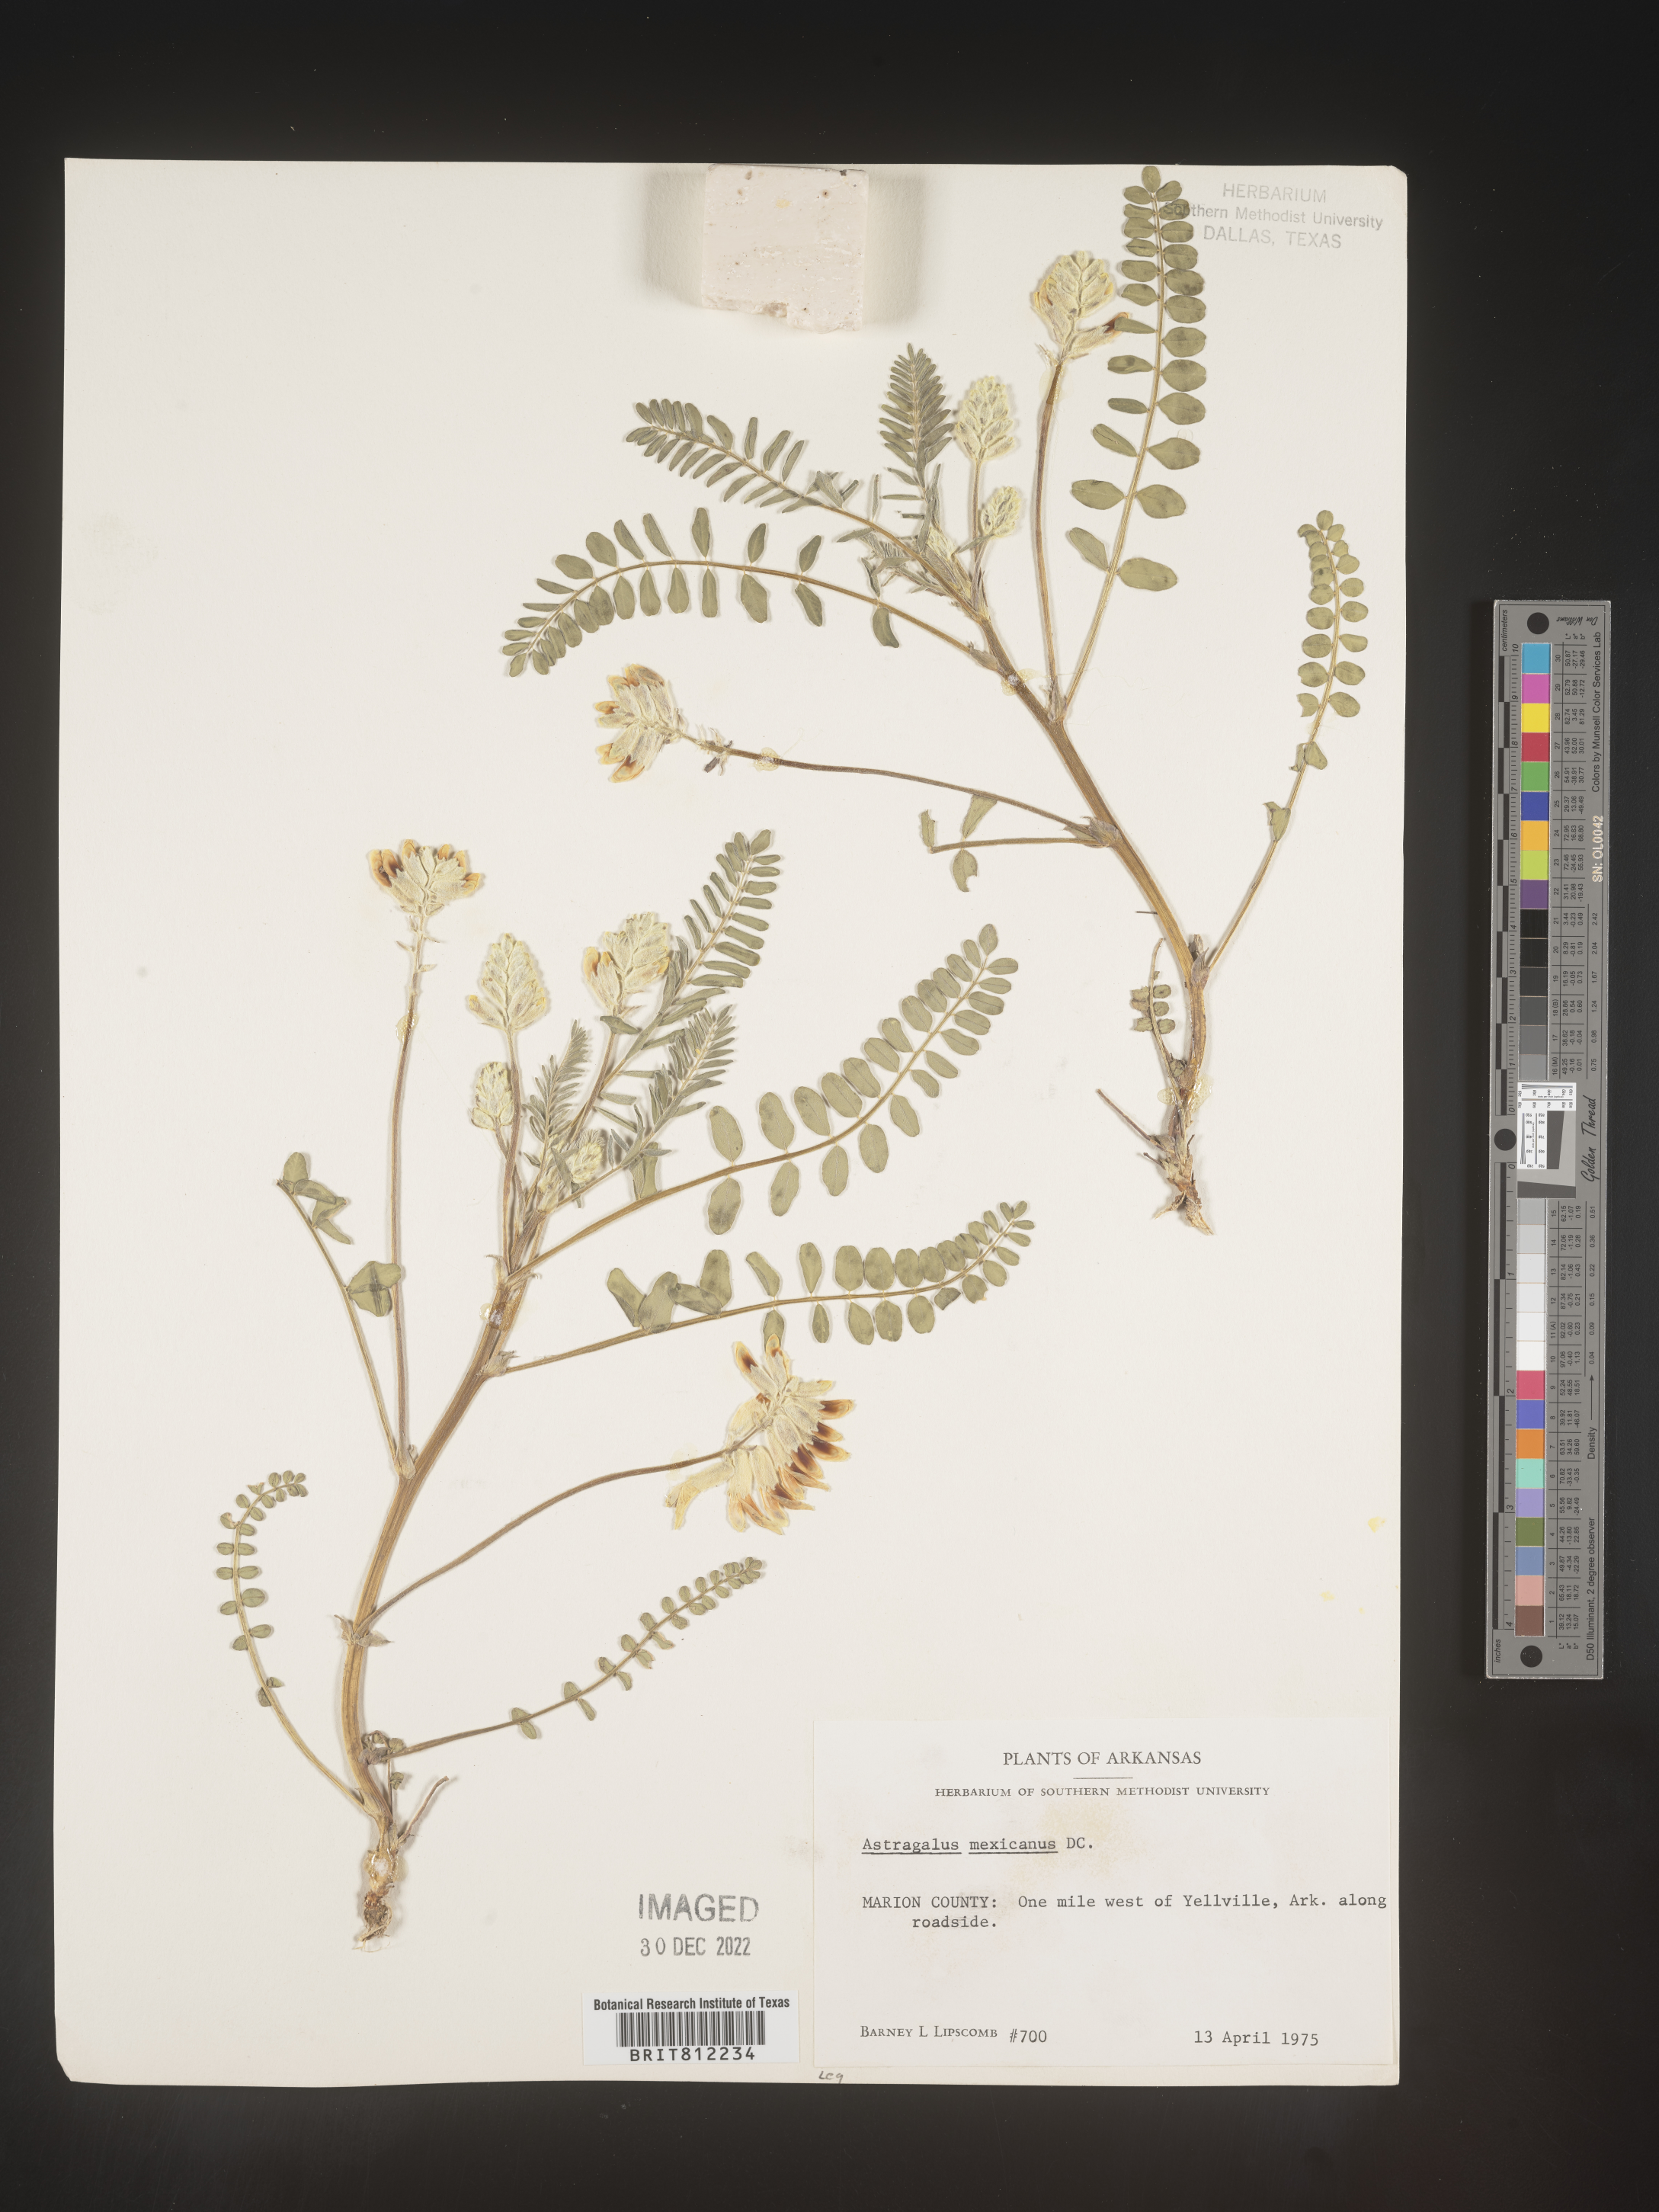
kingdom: Plantae
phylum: Tracheophyta
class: Magnoliopsida
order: Fabales
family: Fabaceae
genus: Astragalus
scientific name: Astragalus
